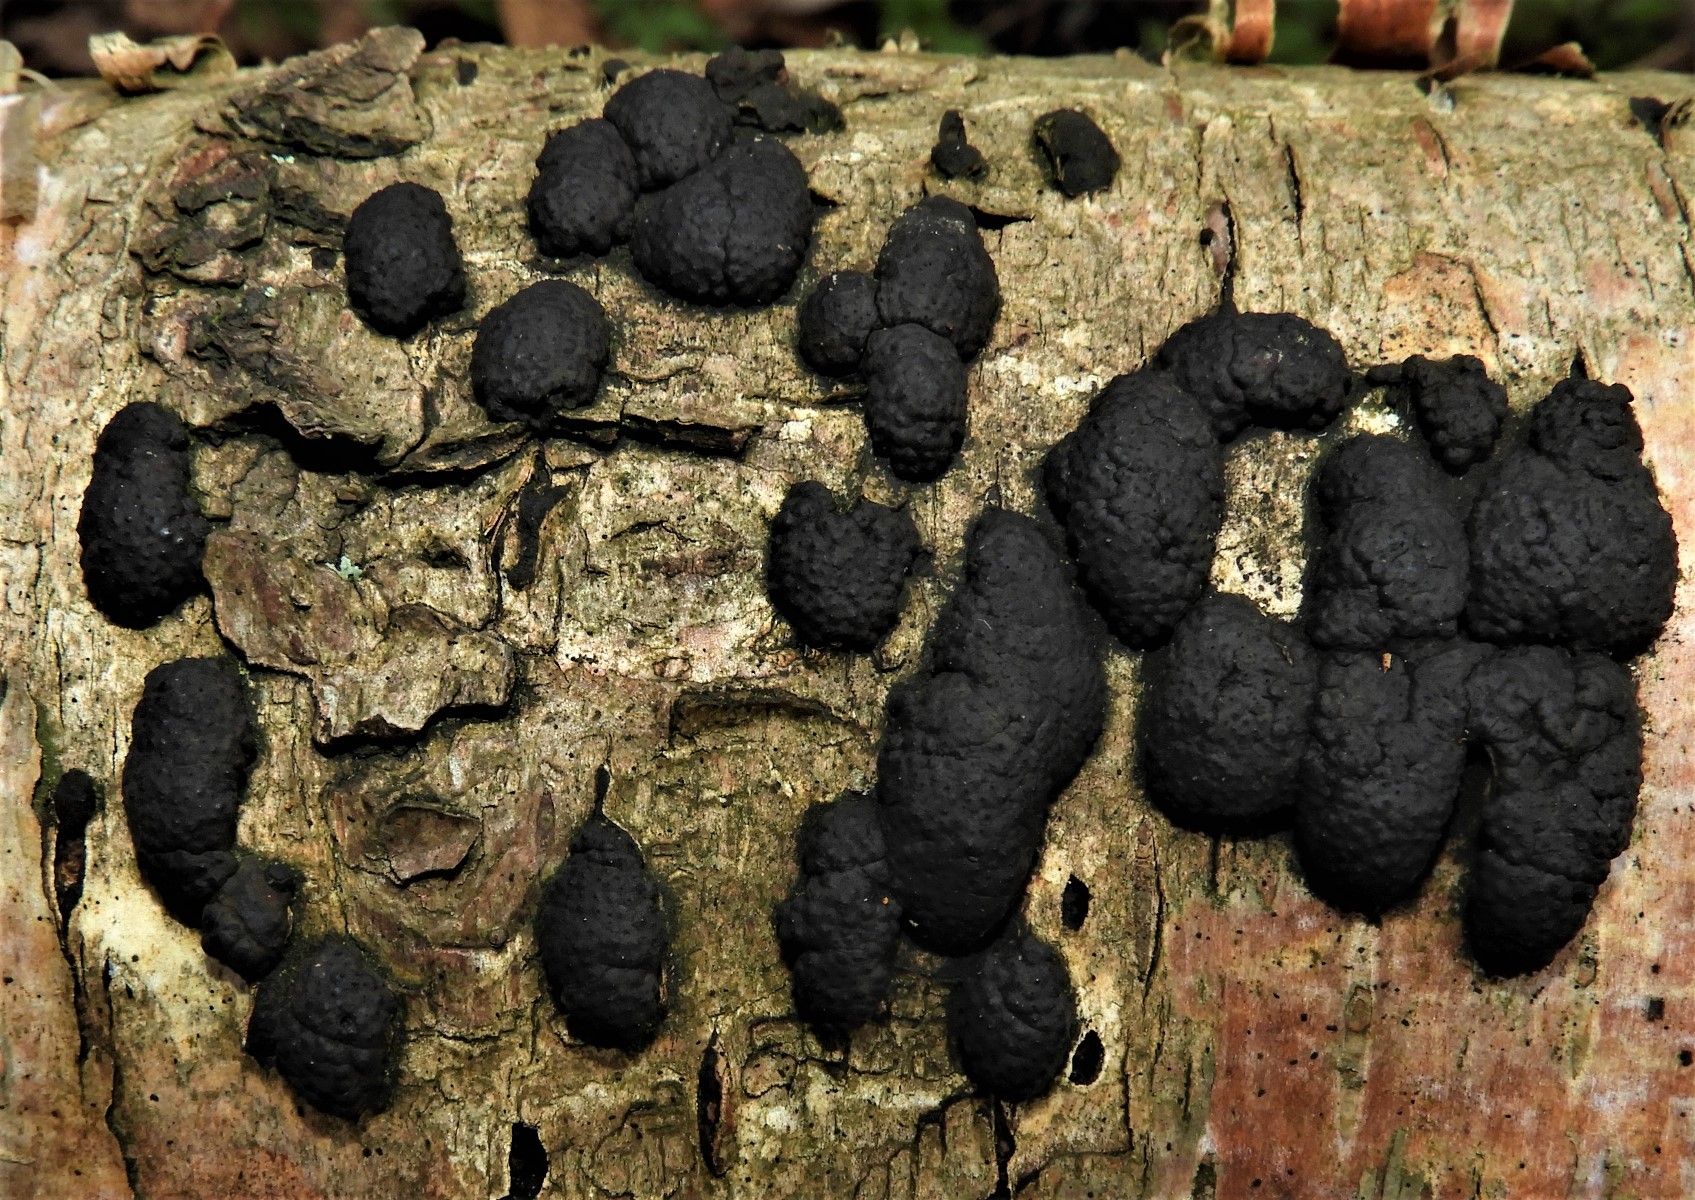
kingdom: Fungi
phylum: Ascomycota
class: Sordariomycetes
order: Xylariales
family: Hypoxylaceae
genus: Jackrogersella
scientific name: Jackrogersella multiformis
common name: foranderlig kulbær
